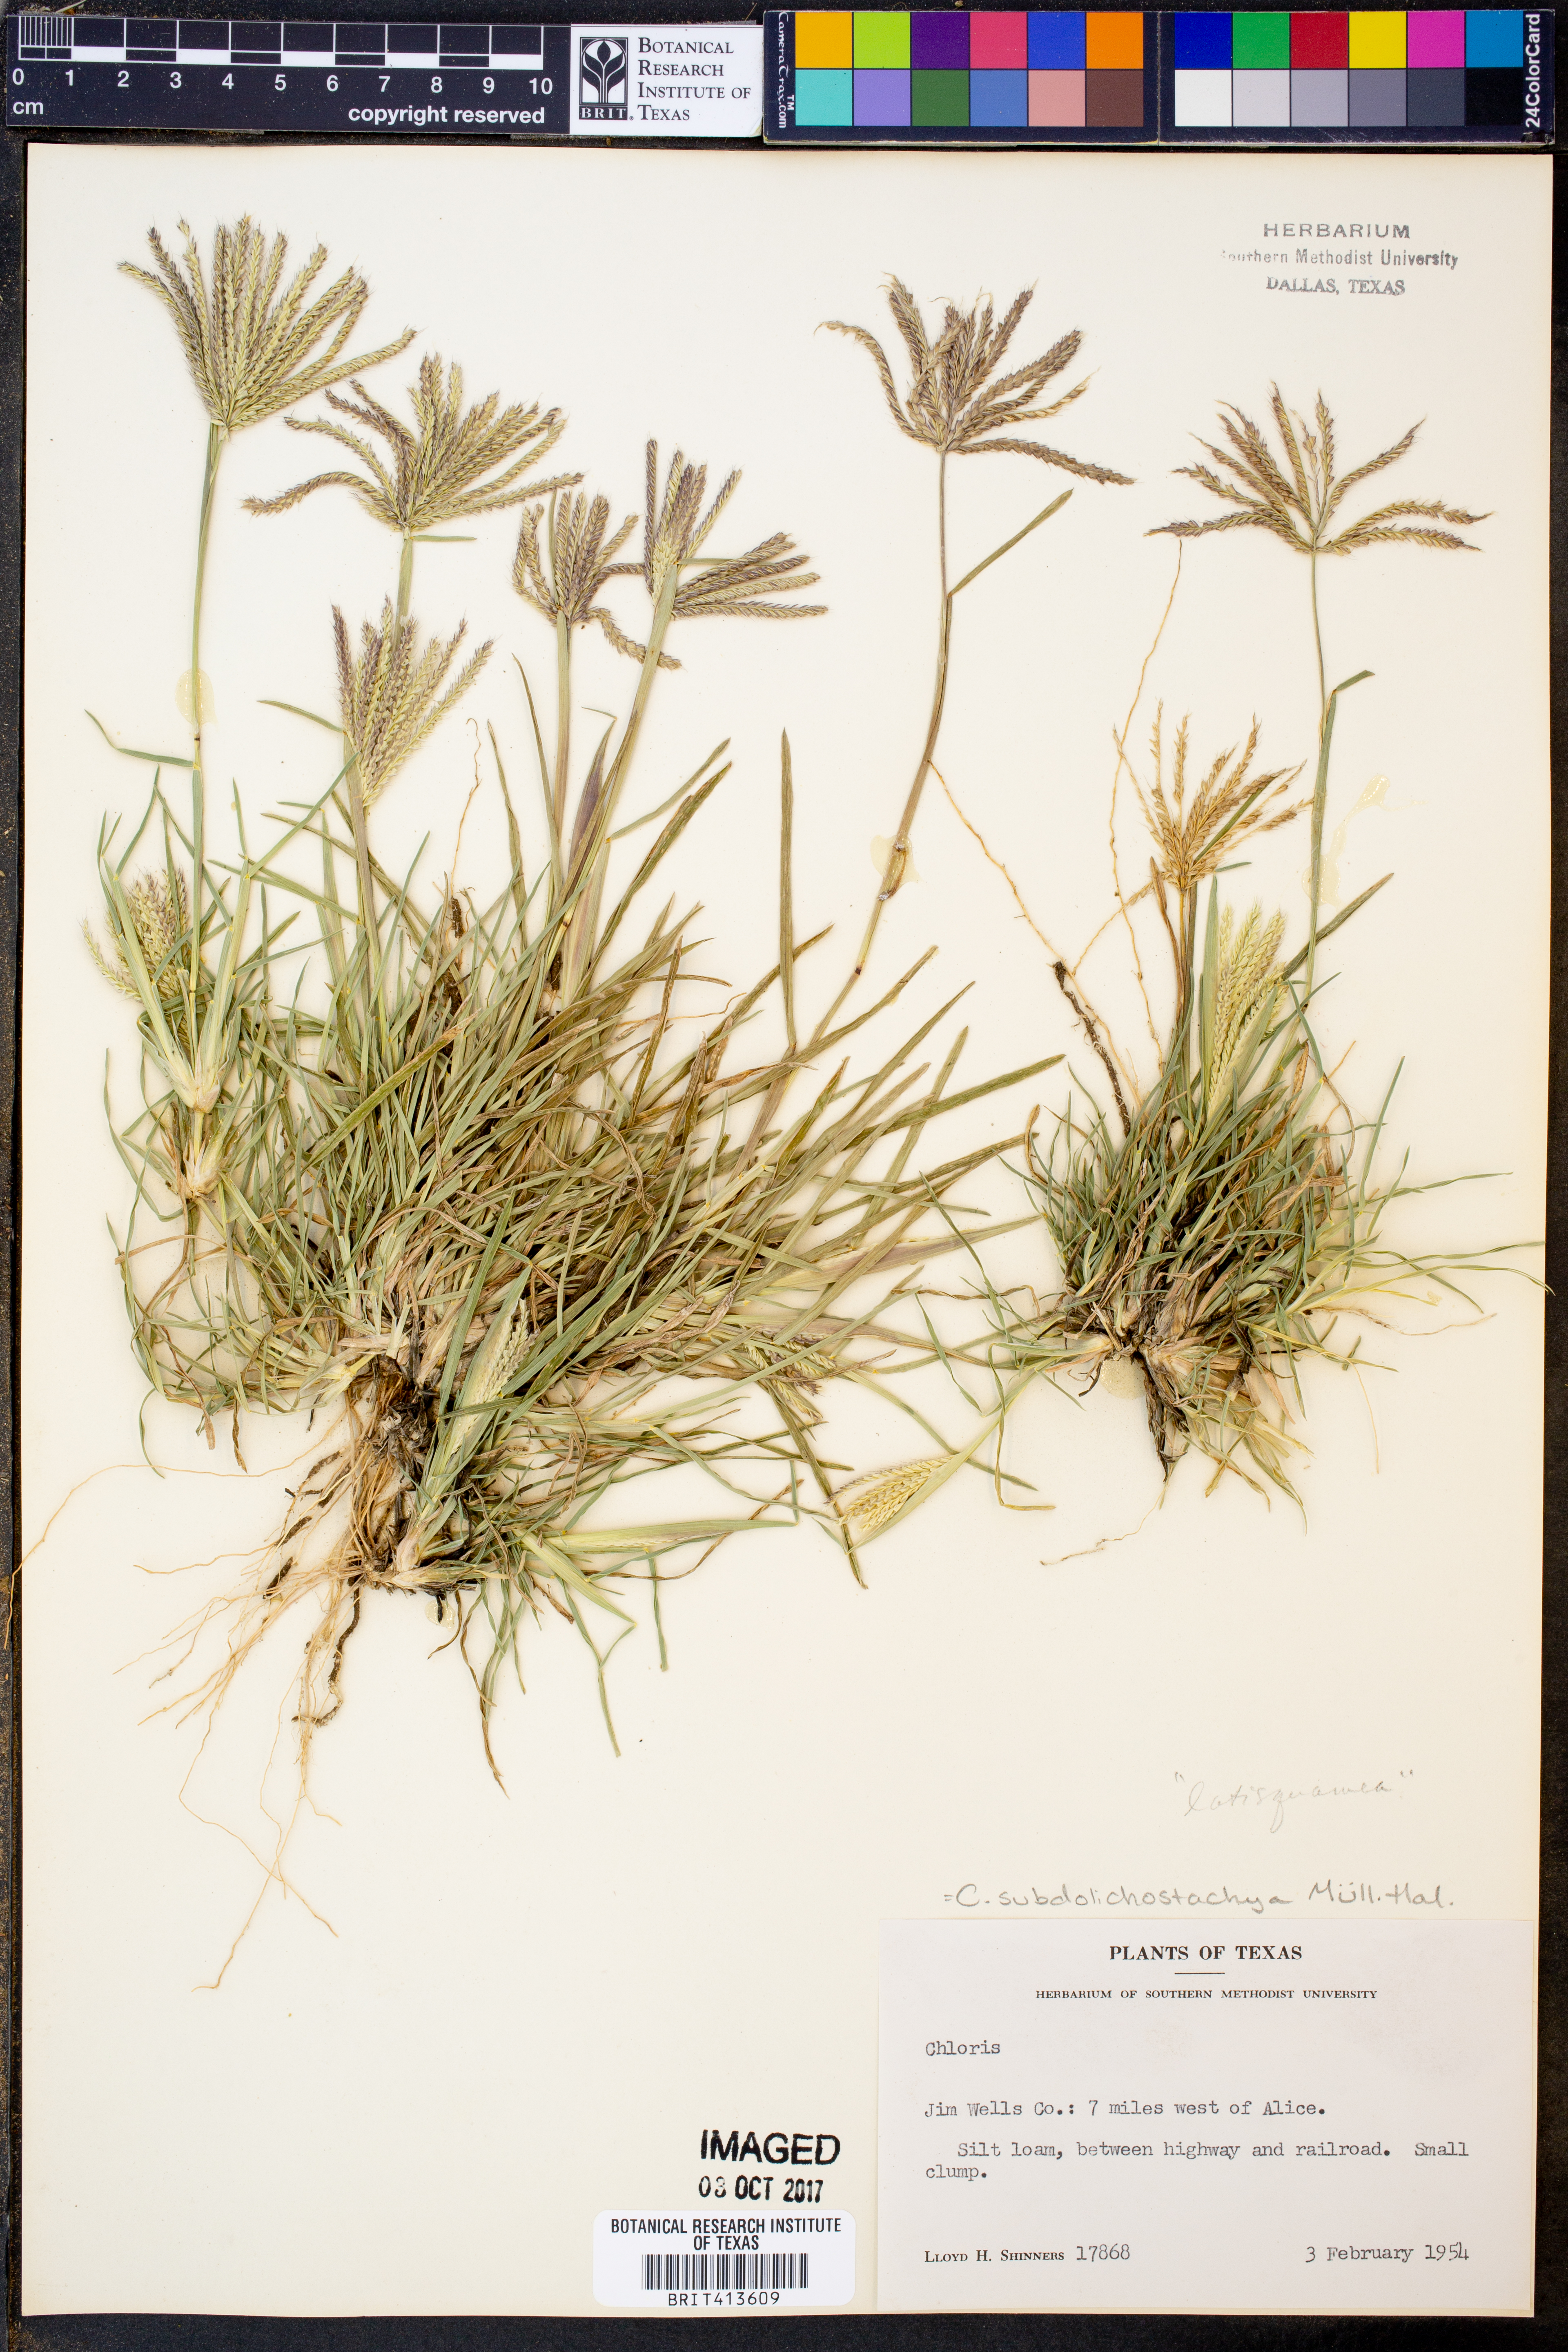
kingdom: Plantae
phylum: Tracheophyta
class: Liliopsida
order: Poales
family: Poaceae
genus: Chloris
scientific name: Chloris subdolichostachya
